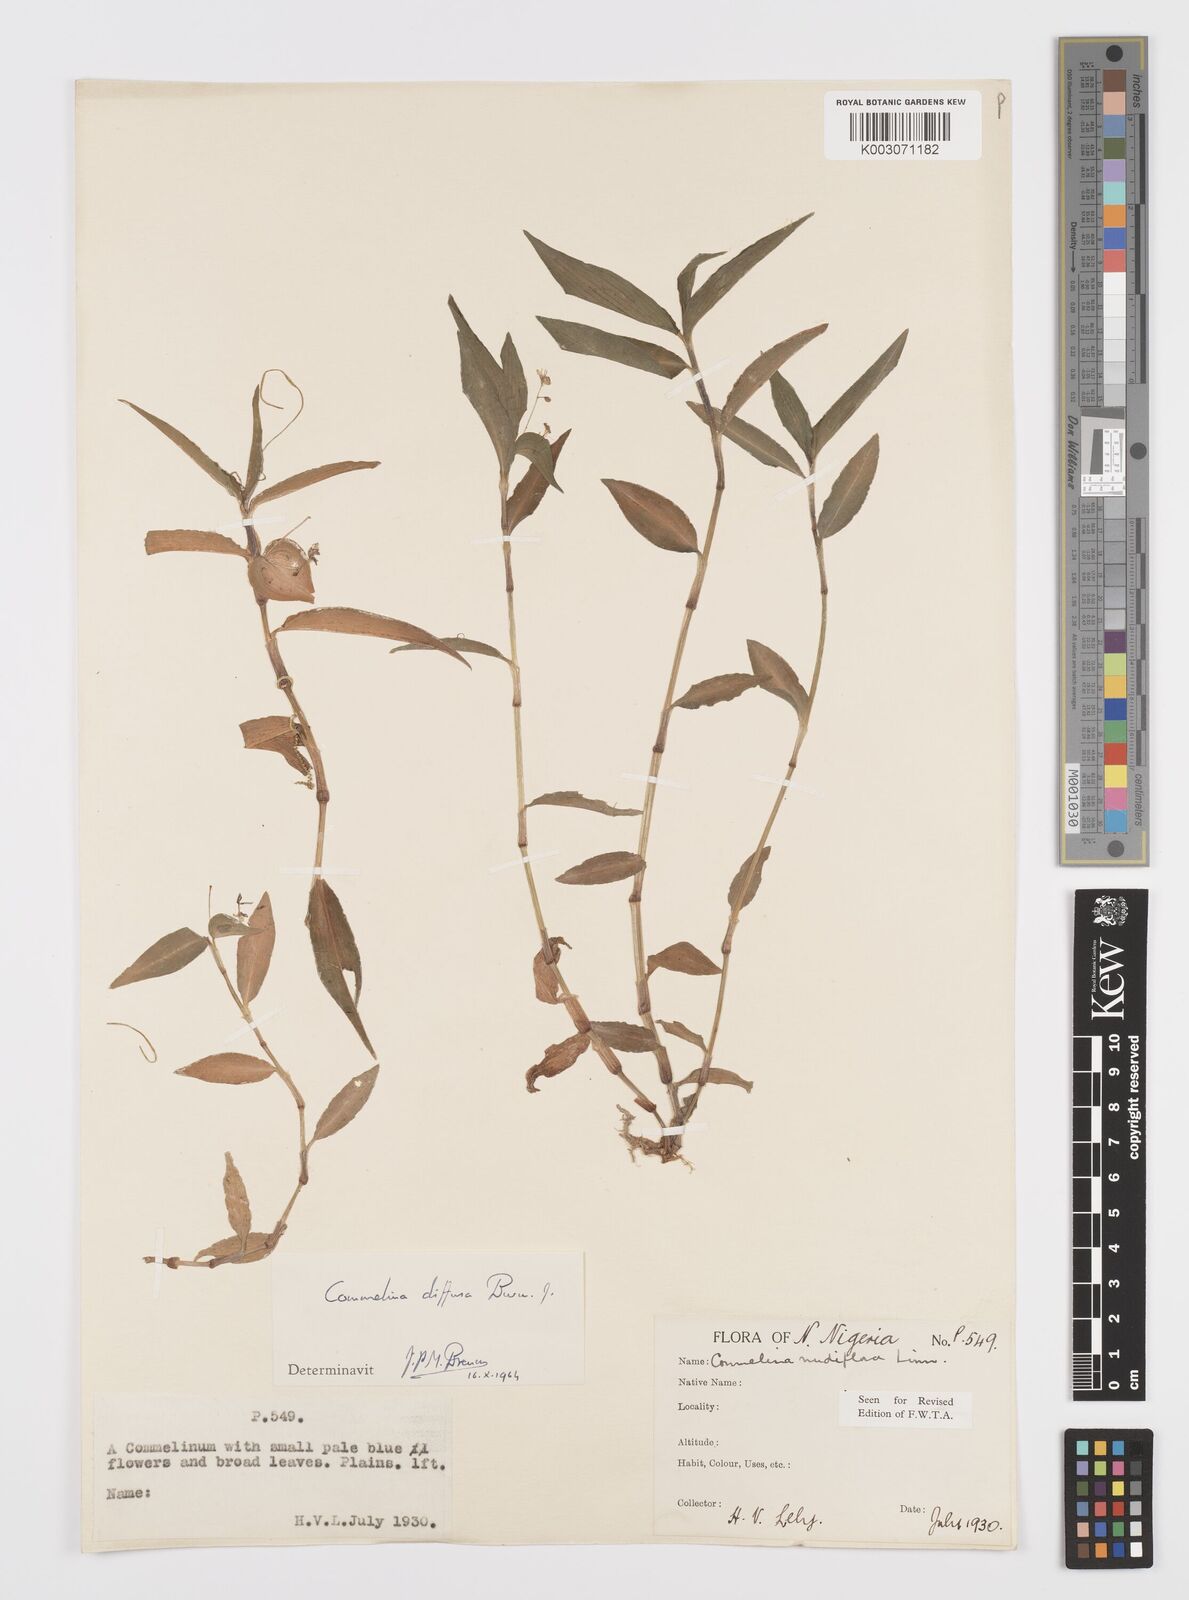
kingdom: Plantae
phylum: Tracheophyta
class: Liliopsida
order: Commelinales
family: Commelinaceae
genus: Commelina
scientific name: Commelina diffusa
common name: Climbing dayflower
